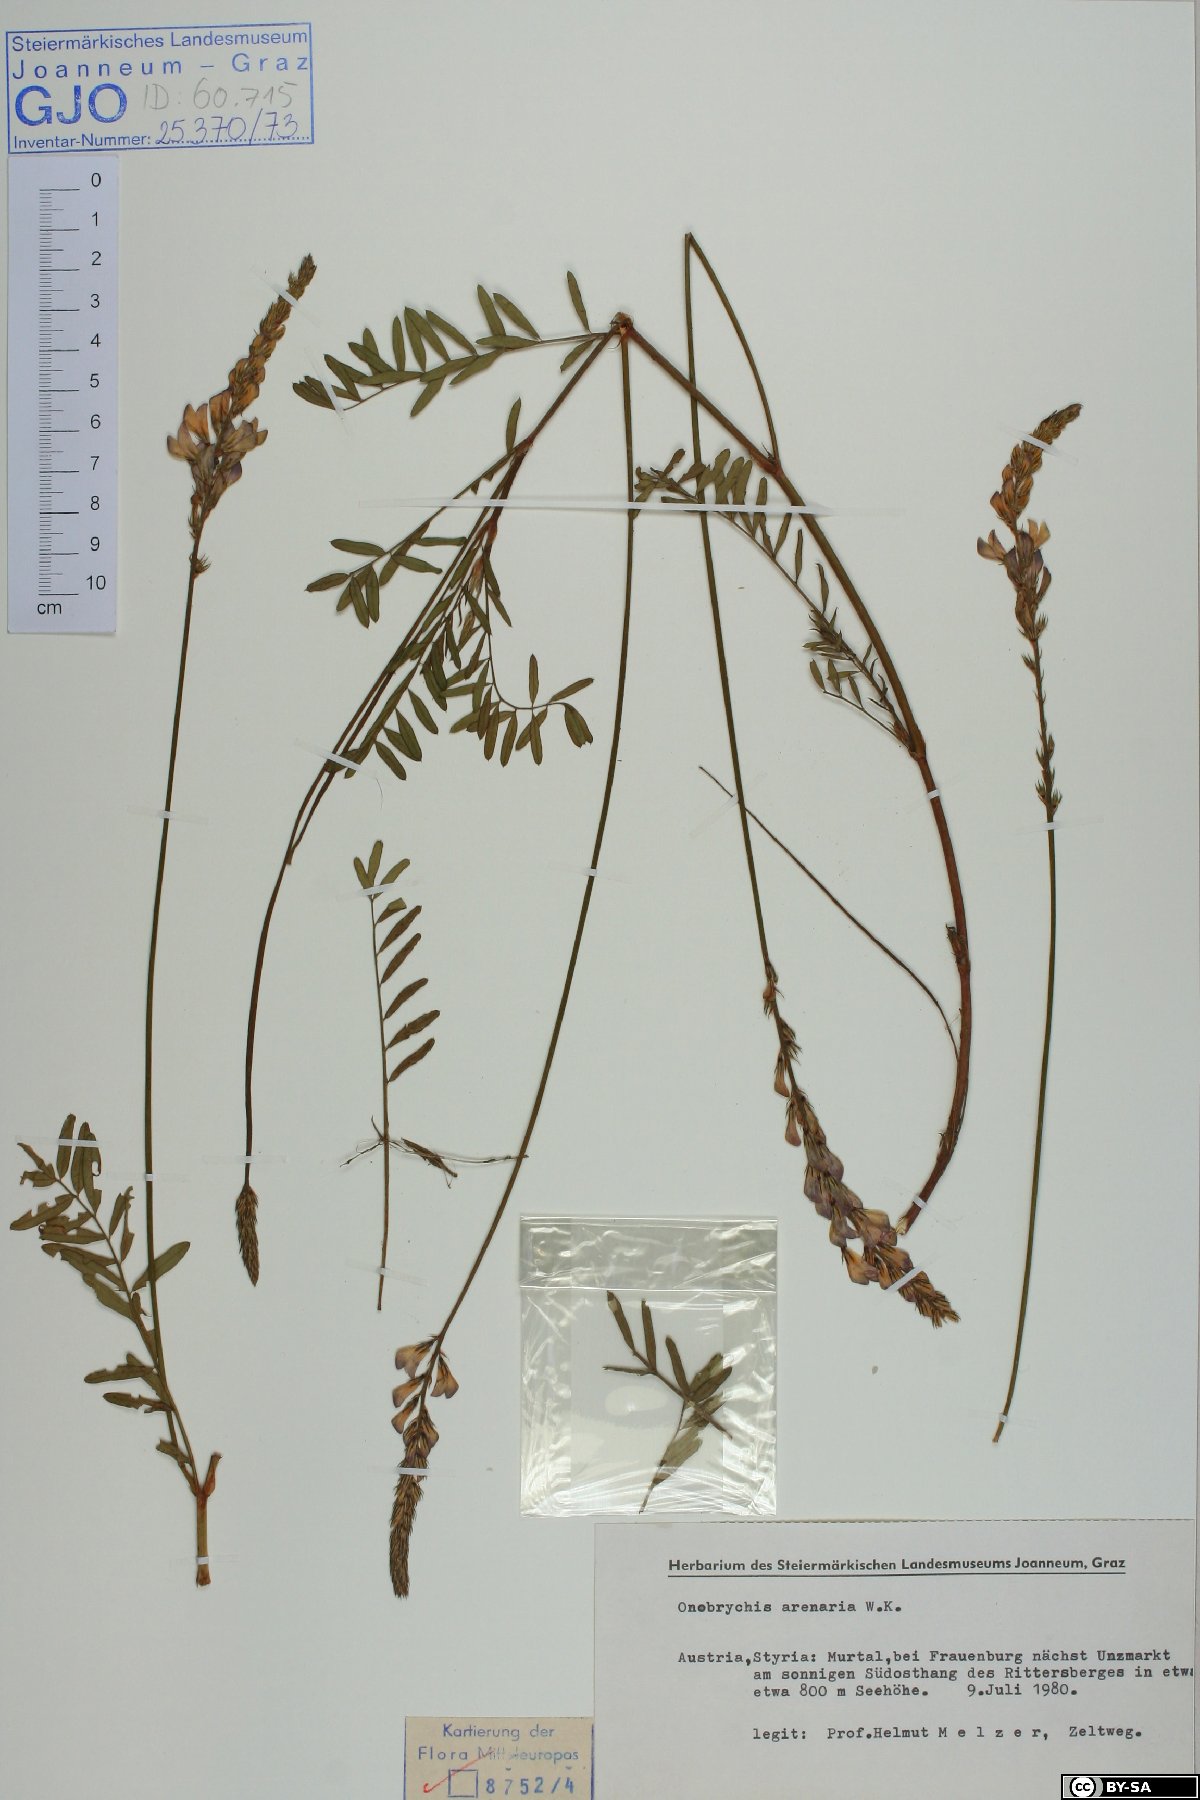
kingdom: Plantae
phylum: Tracheophyta
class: Magnoliopsida
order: Fabales
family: Fabaceae
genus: Onobrychis
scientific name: Onobrychis arenaria
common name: Sand esparcet
